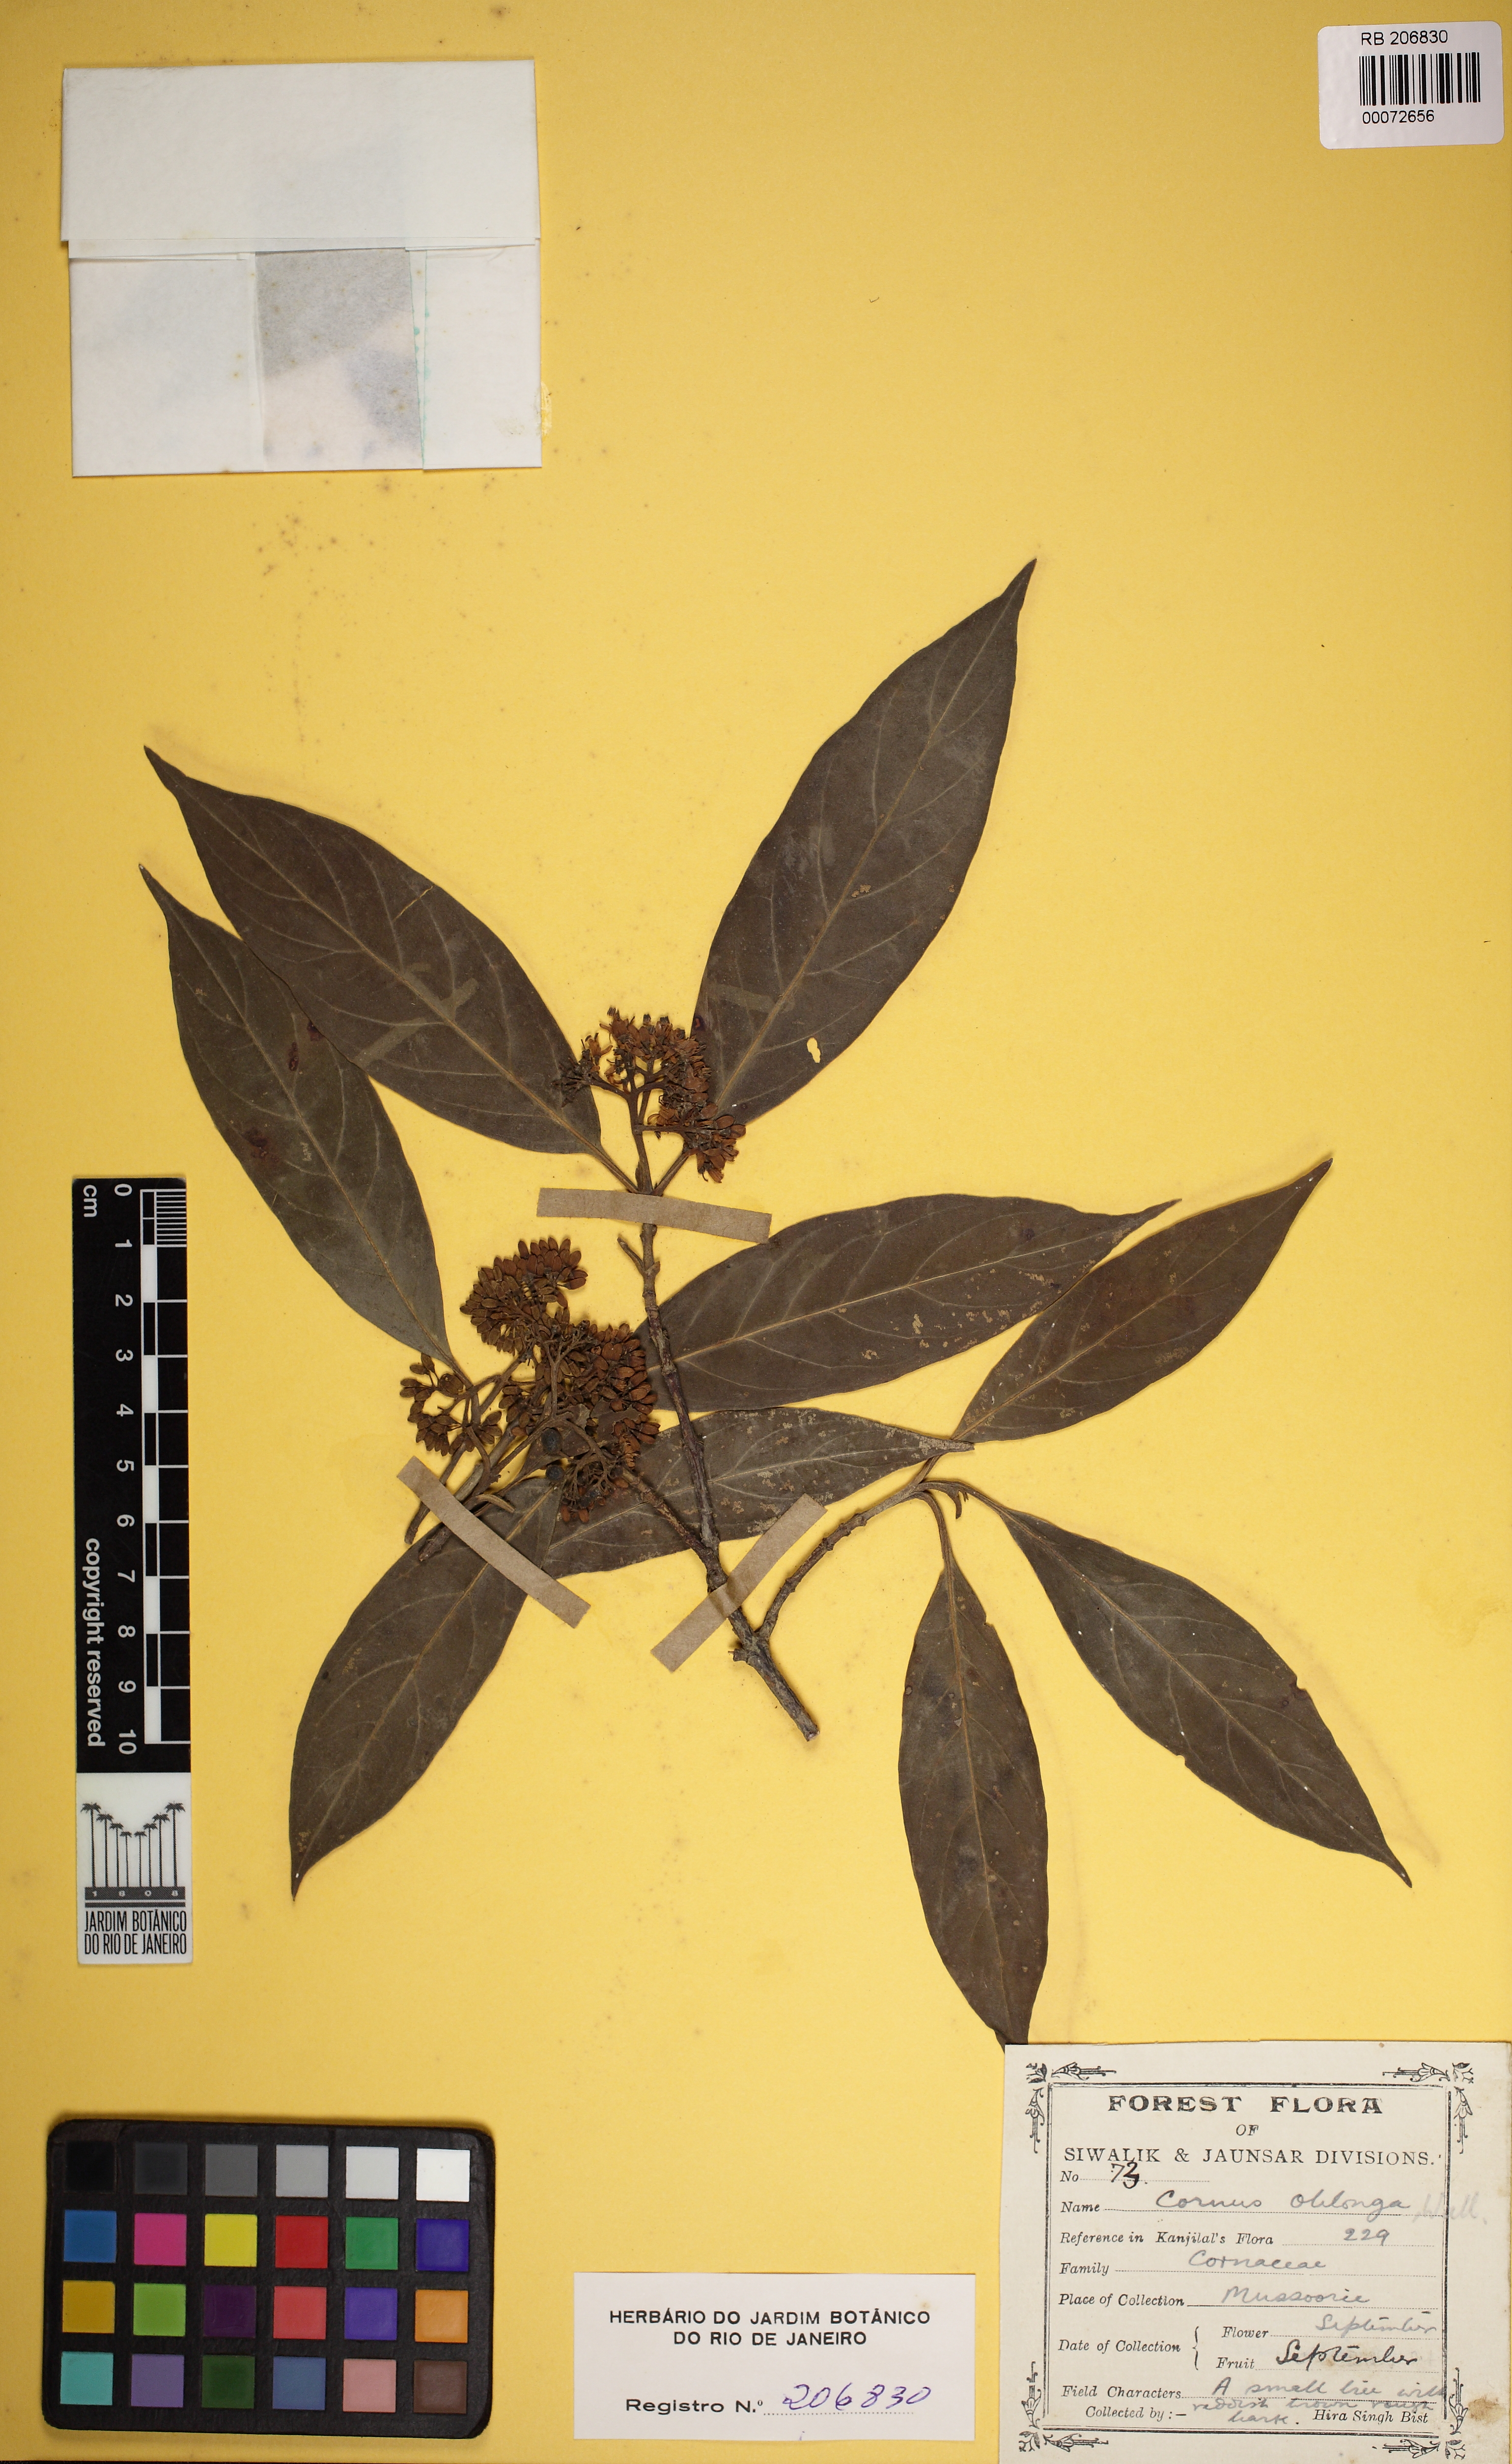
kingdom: Plantae
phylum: Tracheophyta
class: Magnoliopsida
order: Cornales
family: Cornaceae
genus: Cornus
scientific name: Cornus oblonga
